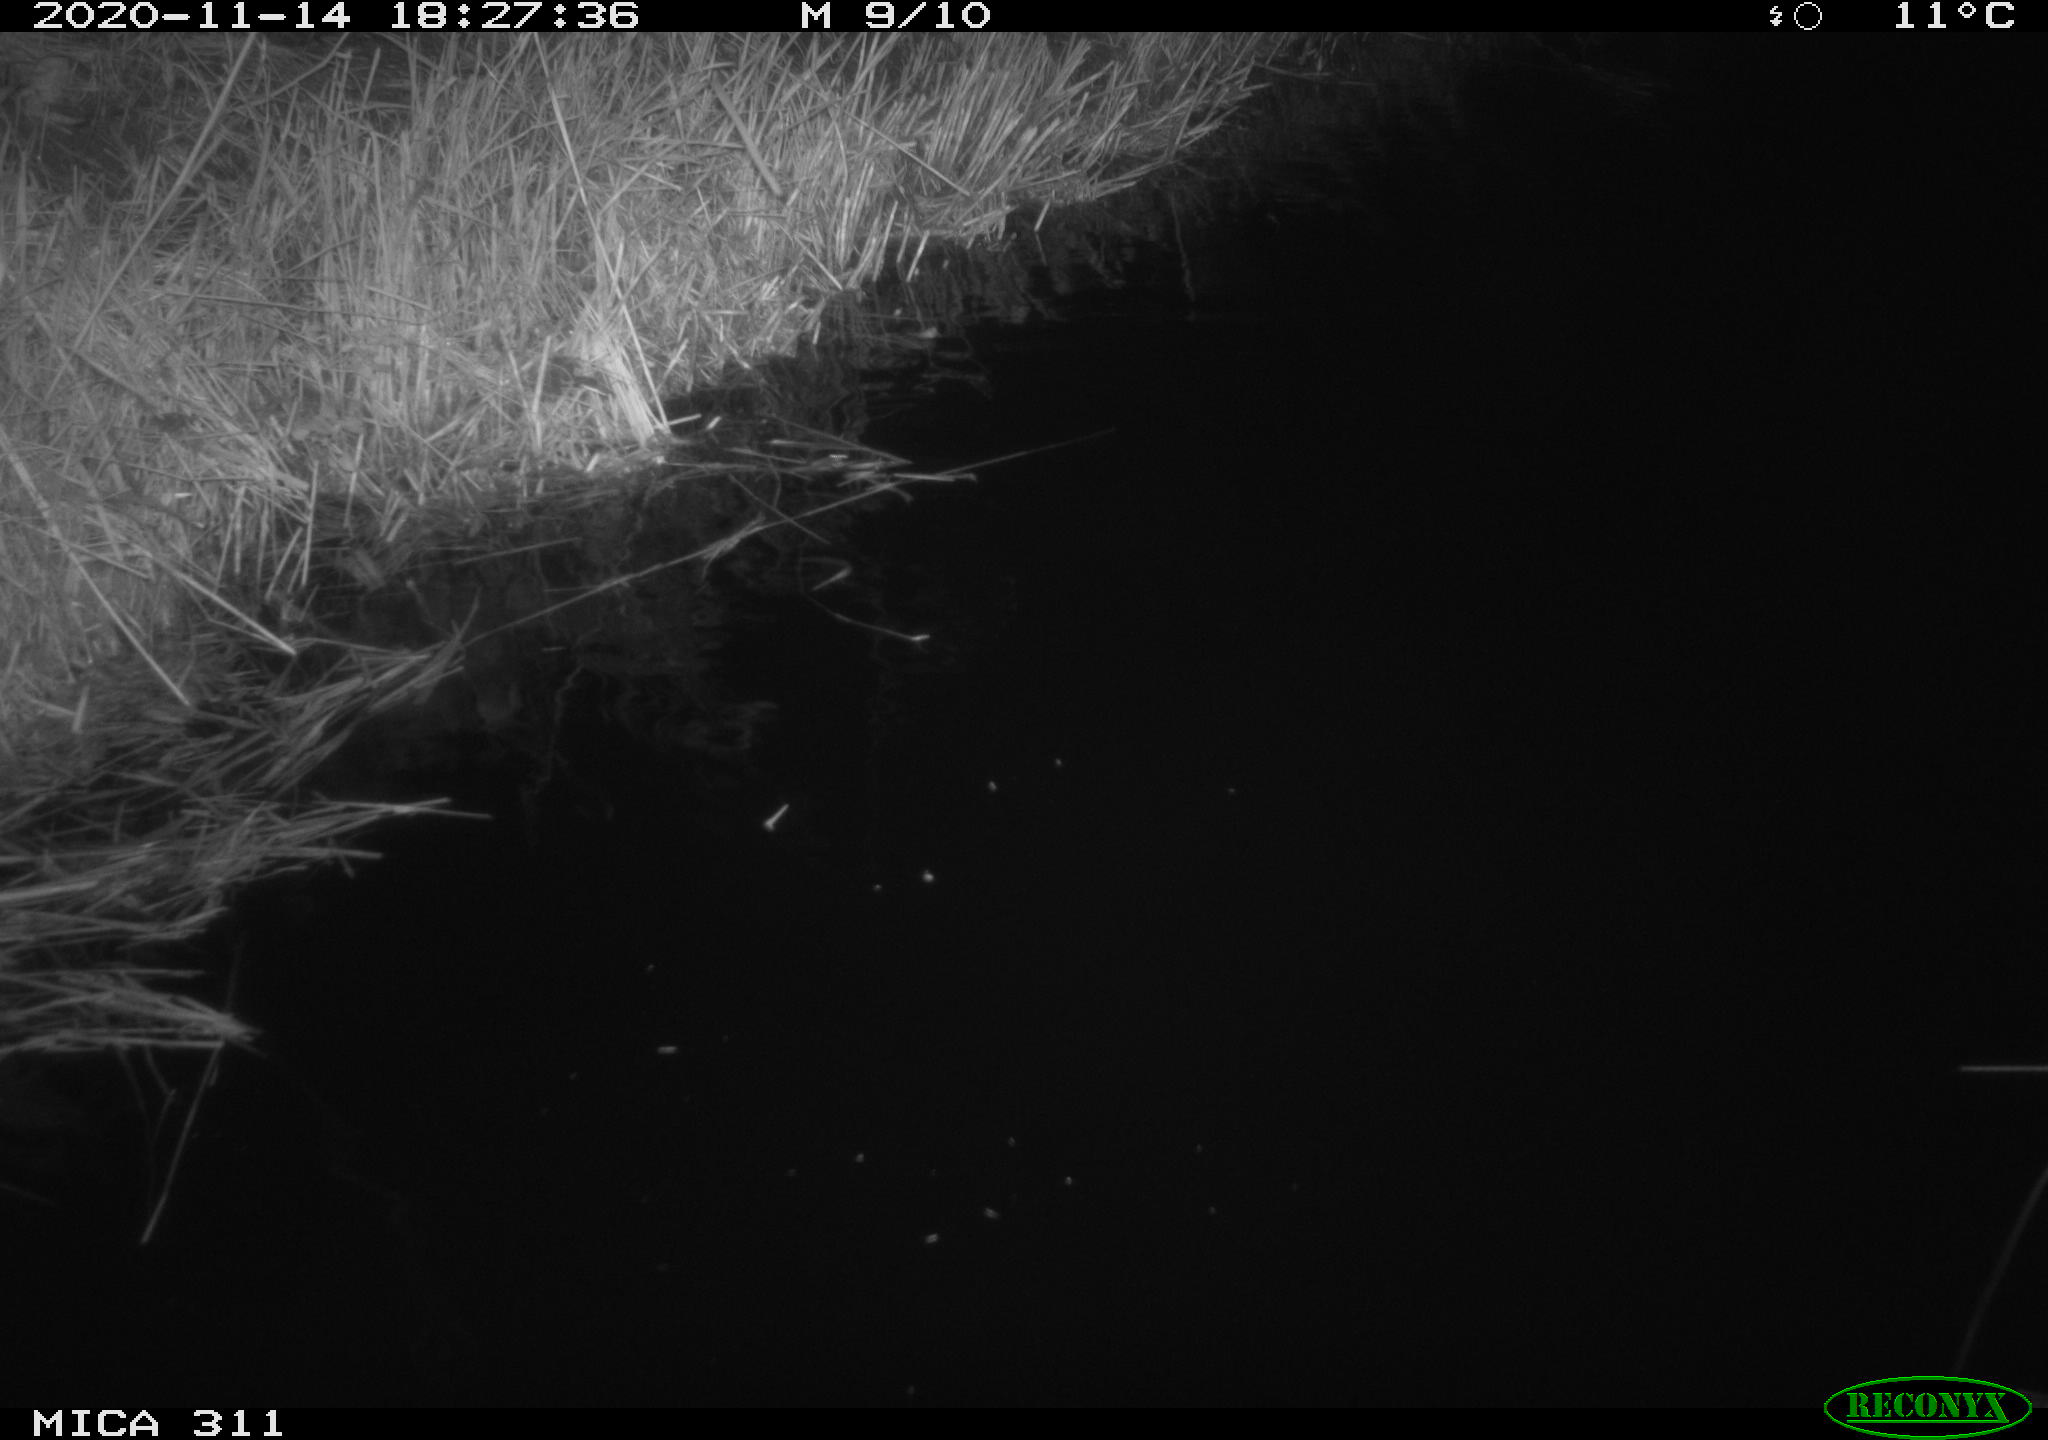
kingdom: Animalia
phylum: Chordata
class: Mammalia
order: Rodentia
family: Muridae
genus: Rattus
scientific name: Rattus norvegicus
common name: Brown rat
